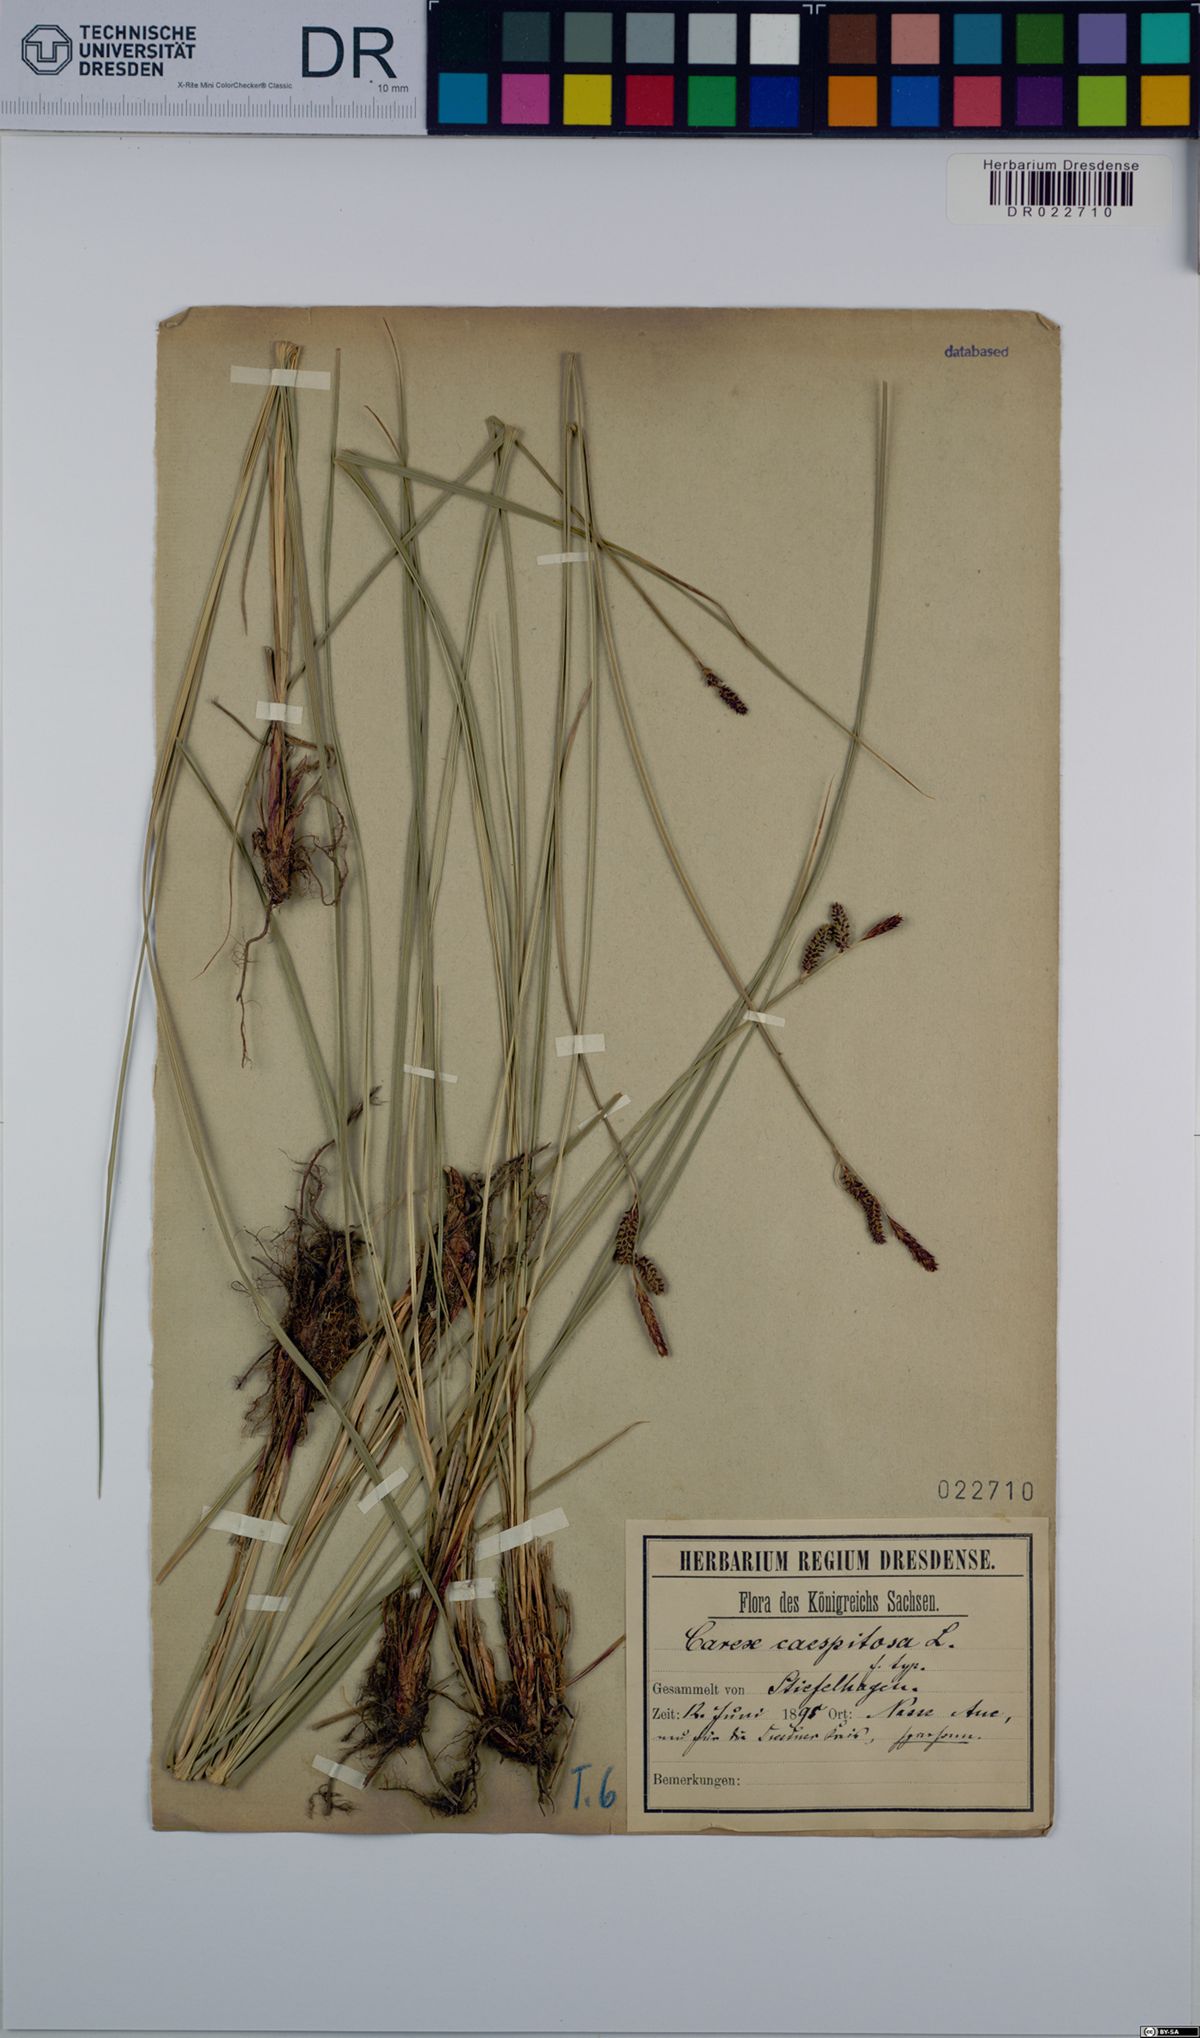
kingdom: Plantae
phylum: Tracheophyta
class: Liliopsida
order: Poales
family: Cyperaceae
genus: Carex
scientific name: Carex cespitosa
